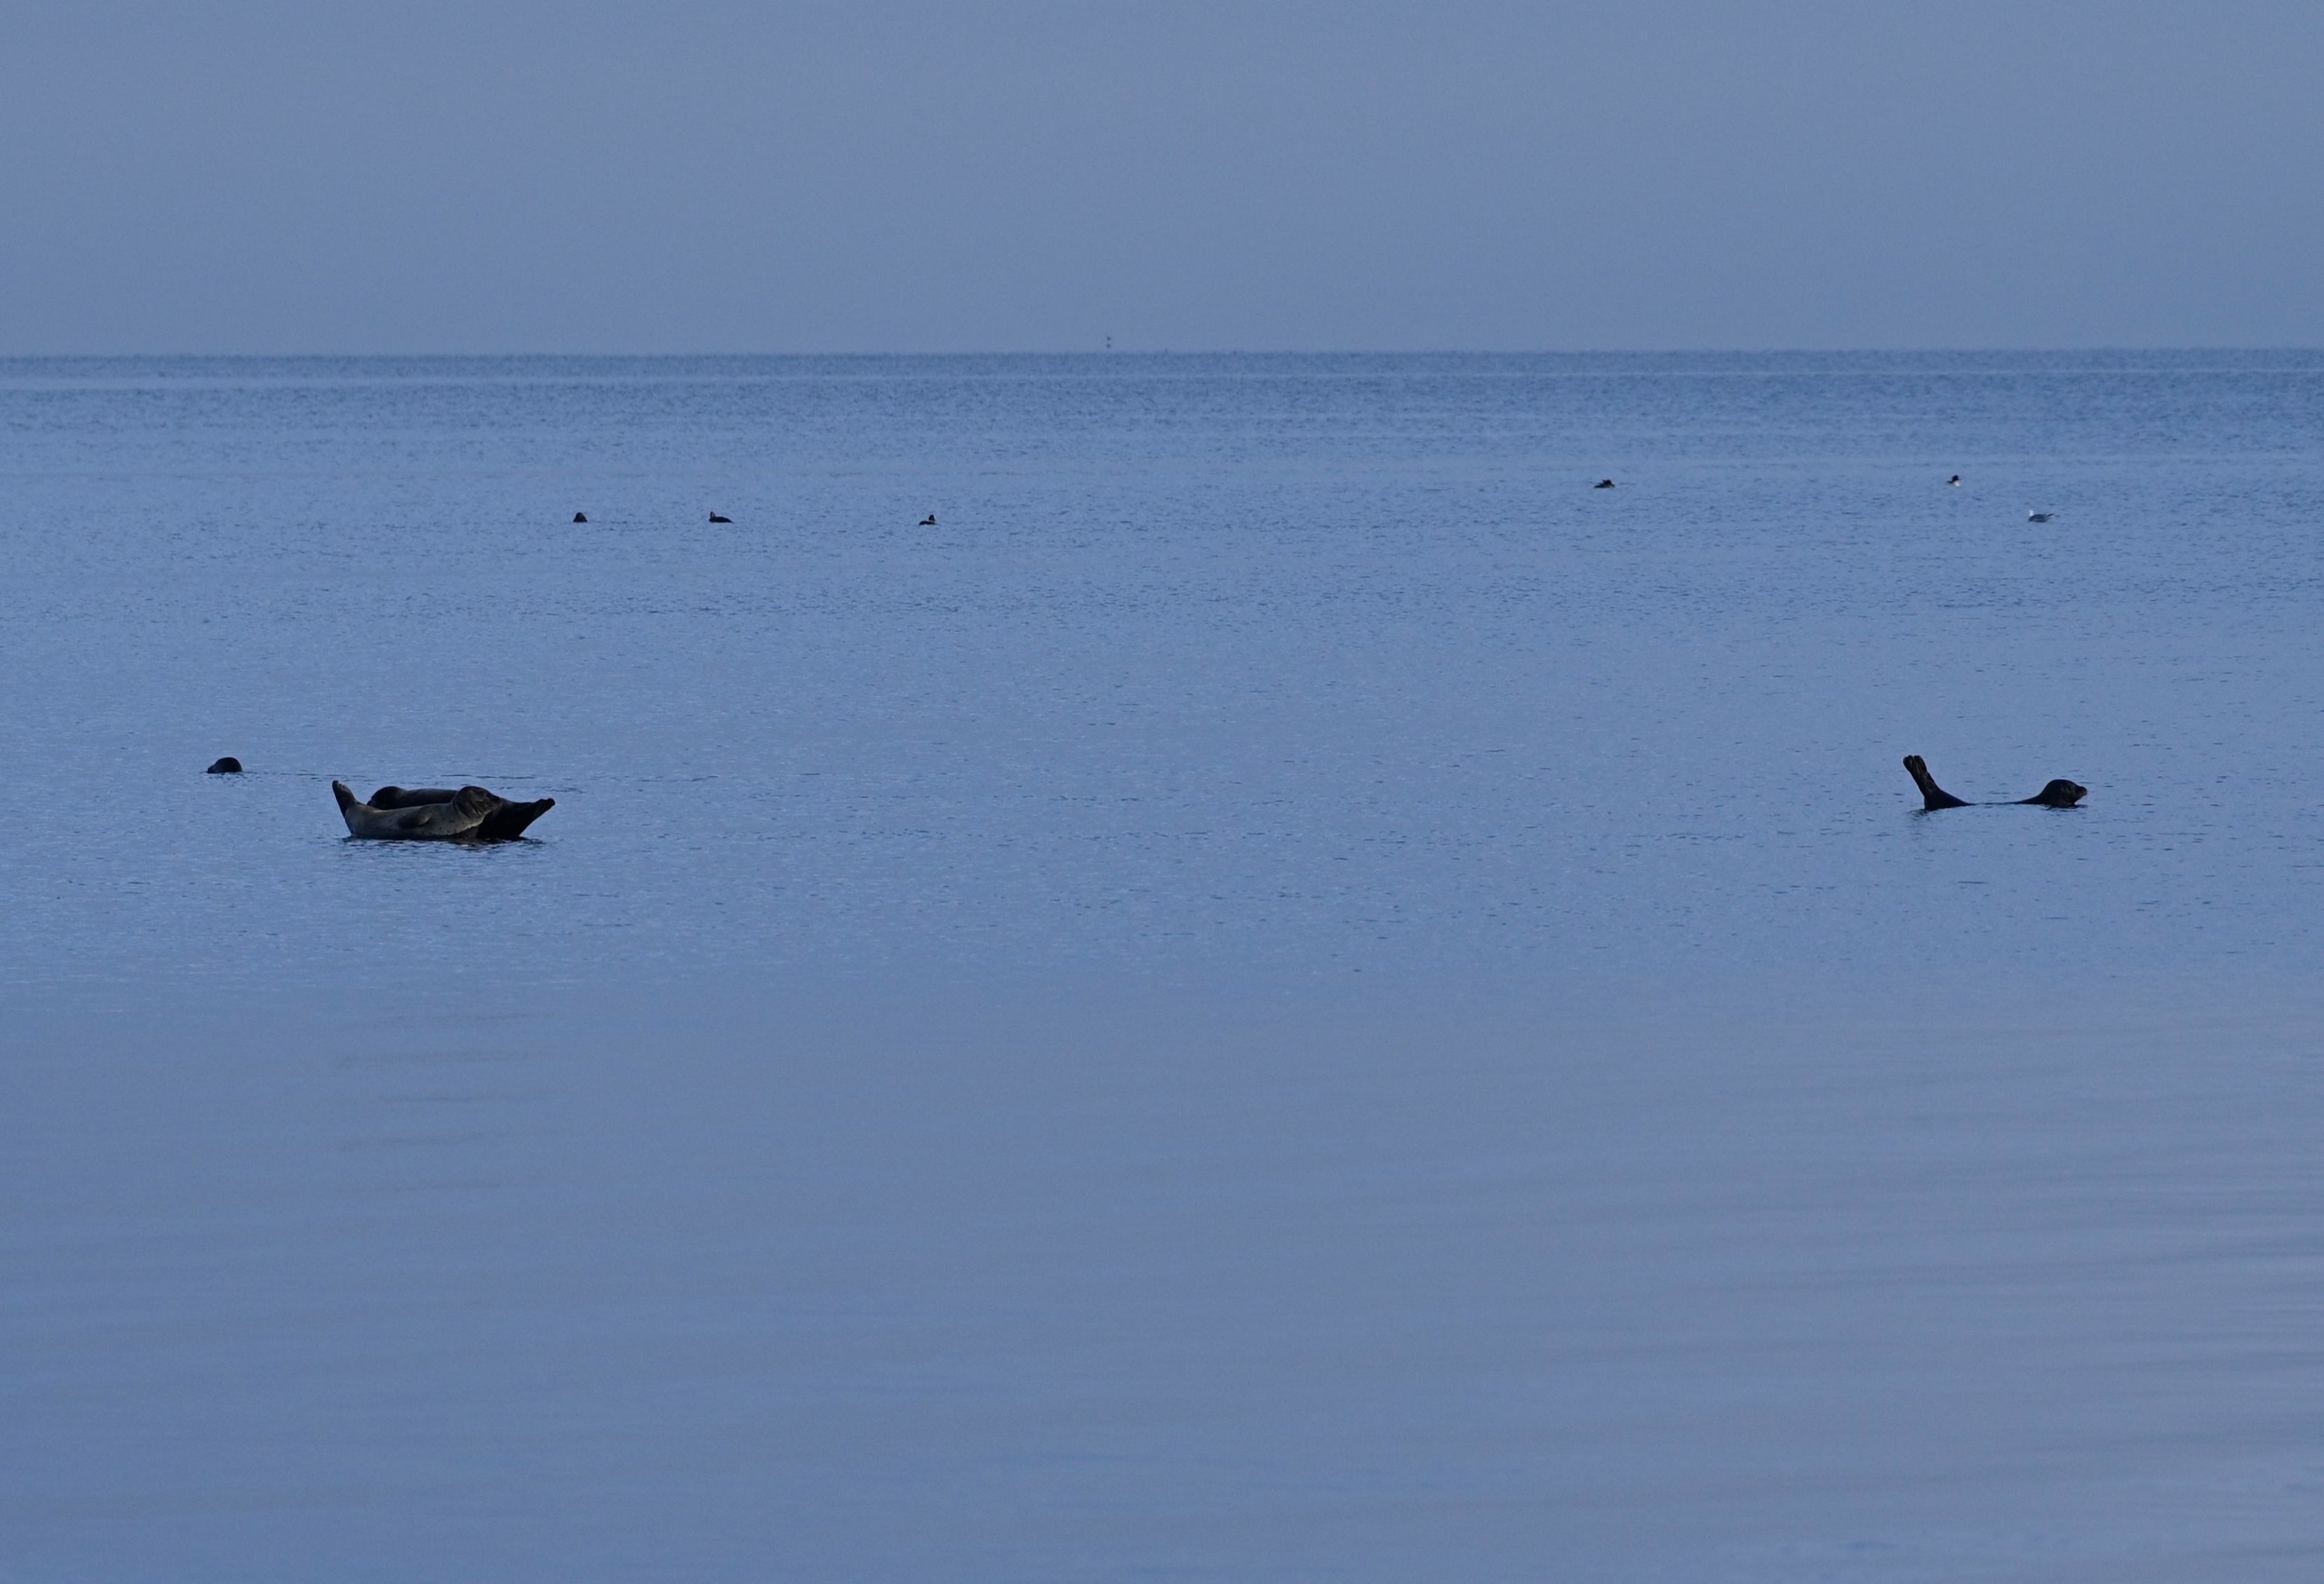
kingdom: Animalia
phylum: Chordata
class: Mammalia
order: Carnivora
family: Phocidae
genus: Phoca
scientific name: Phoca vitulina
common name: Spættet sæl
